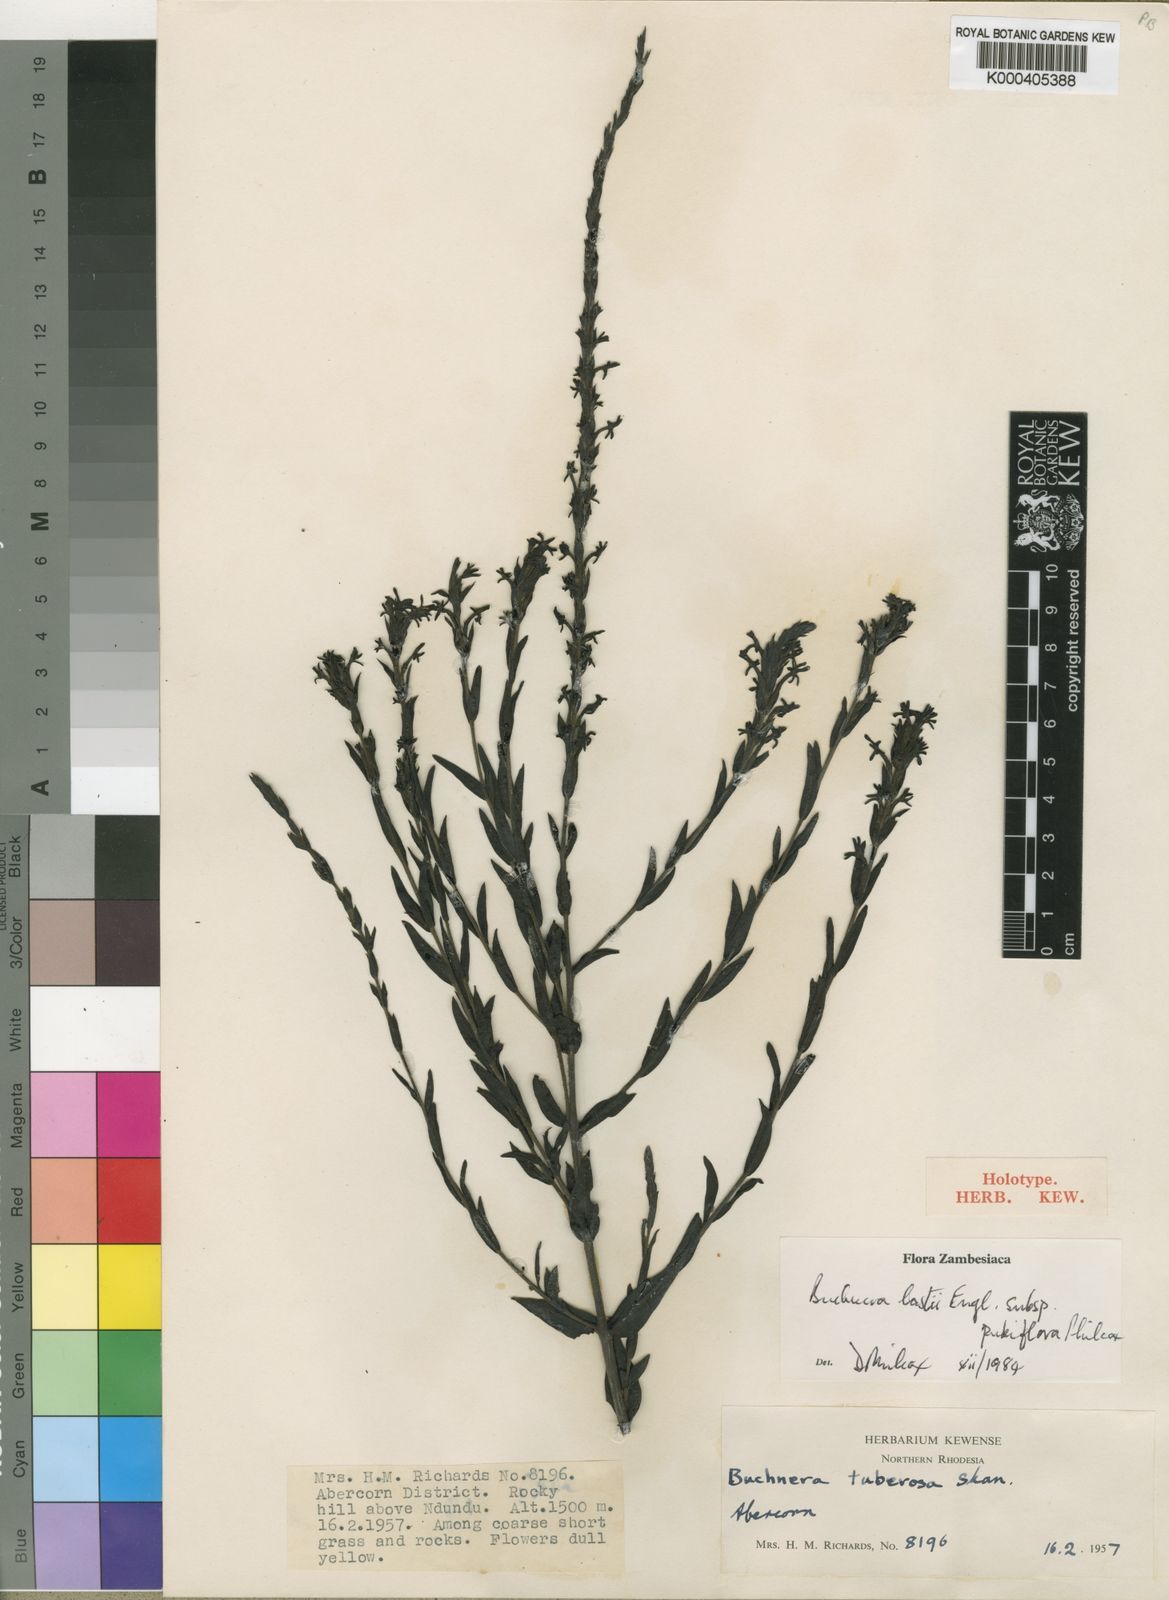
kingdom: Plantae
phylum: Tracheophyta
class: Magnoliopsida
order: Lamiales
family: Orobanchaceae
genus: Buchnera
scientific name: Buchnera lastii
